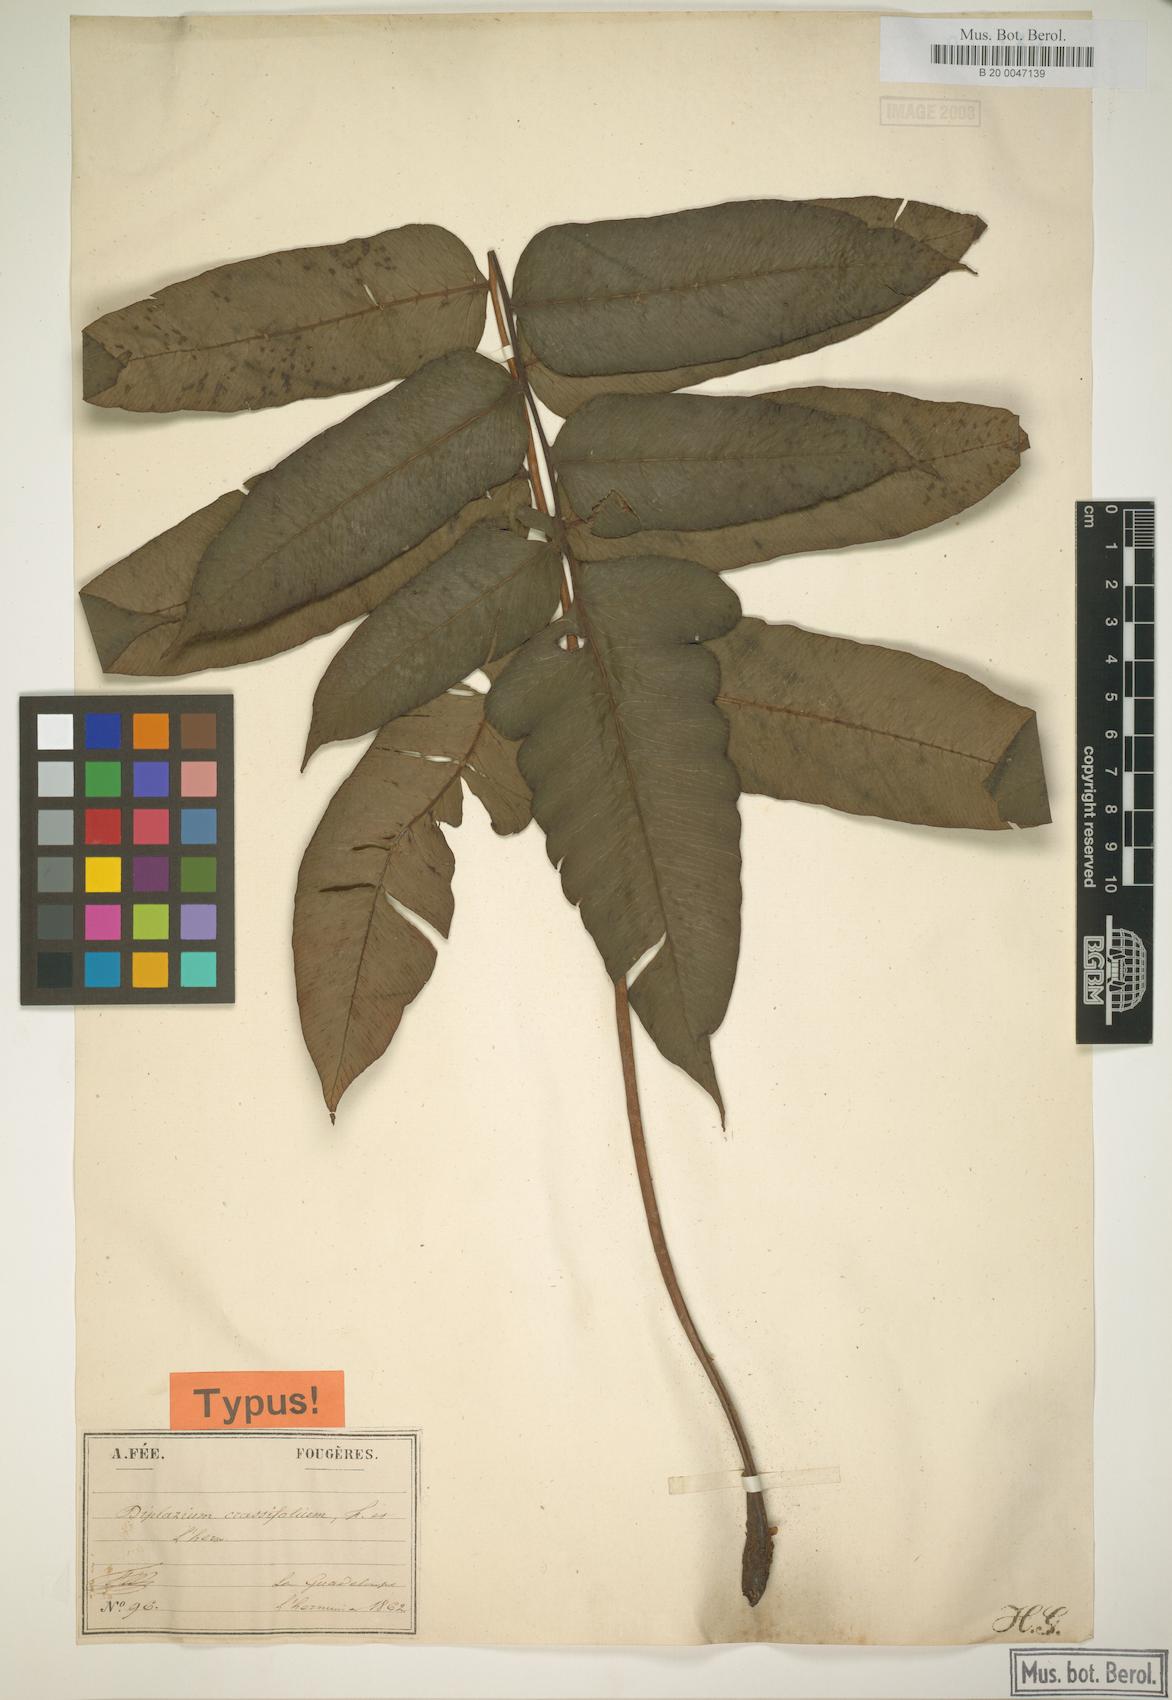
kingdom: Plantae
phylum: Tracheophyta
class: Polypodiopsida
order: Polypodiales
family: Athyriaceae
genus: Diplazium
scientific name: Diplazium
